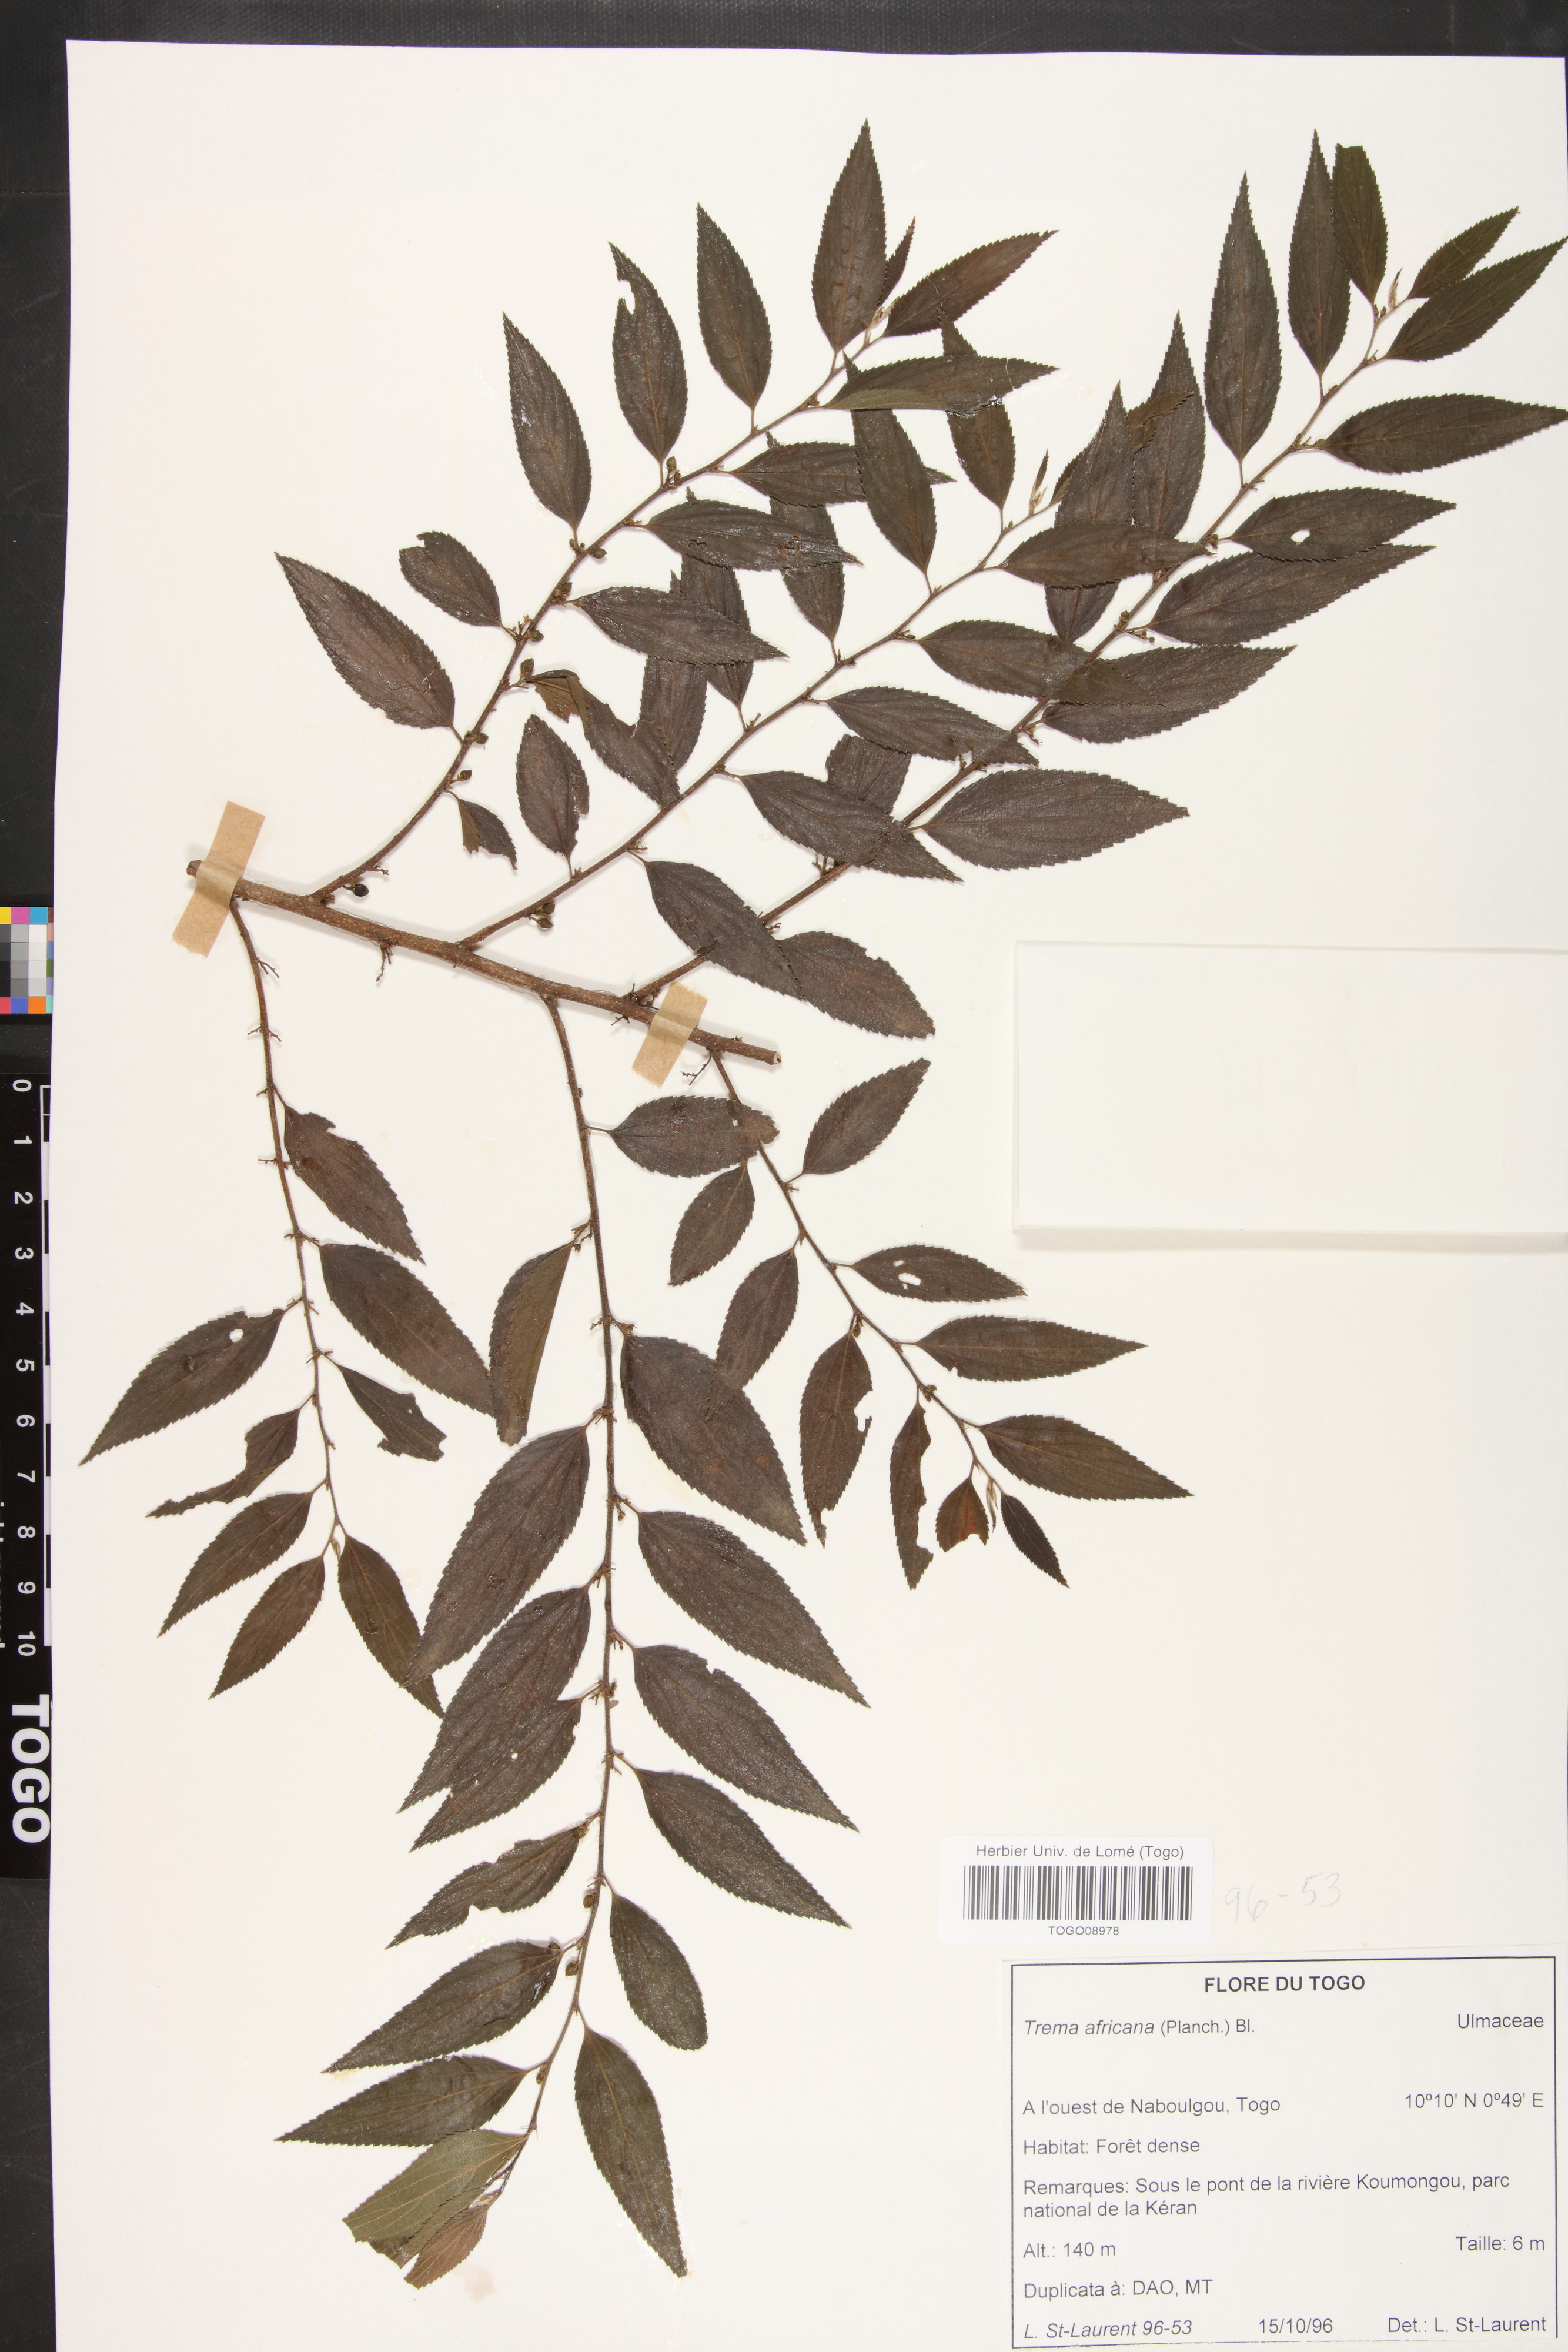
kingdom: Plantae
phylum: Tracheophyta
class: Magnoliopsida
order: Rosales
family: Cannabaceae
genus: Trema
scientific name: Trema orientale
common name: Indian charcoal tree
